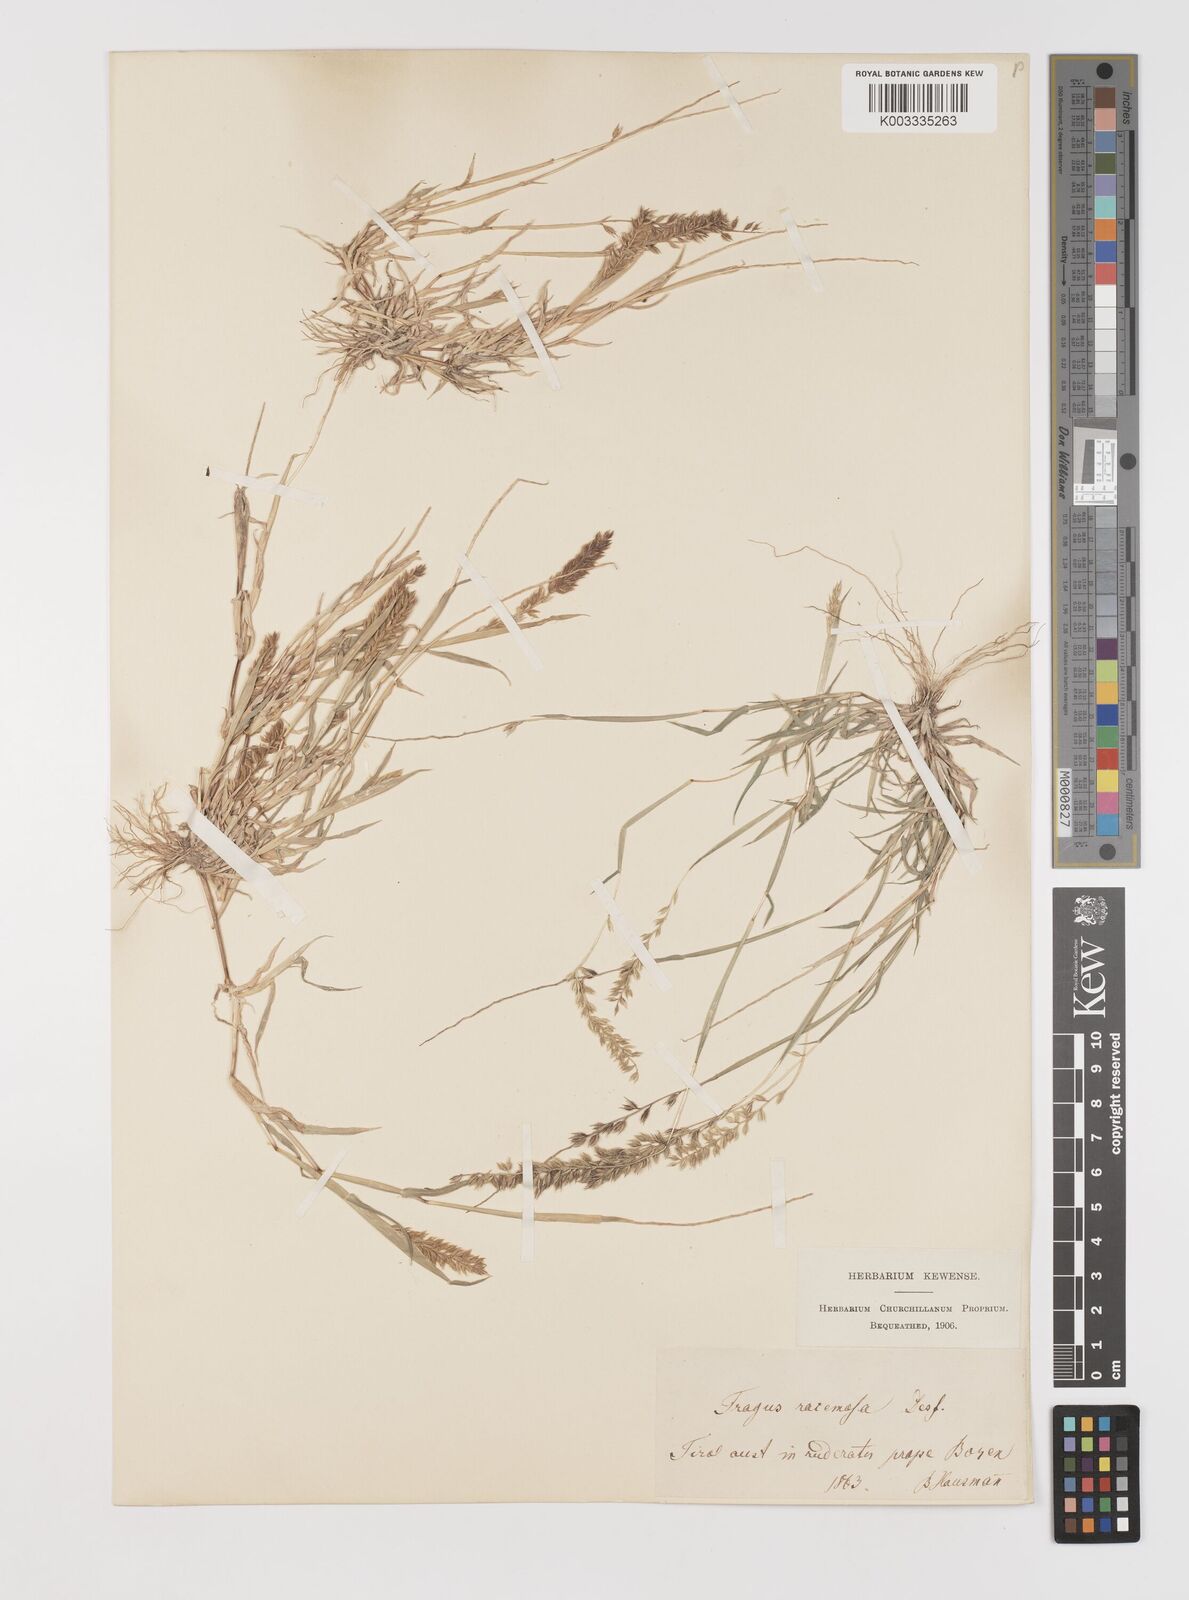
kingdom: Plantae
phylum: Tracheophyta
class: Liliopsida
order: Poales
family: Poaceae
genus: Tragus
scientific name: Tragus racemosus
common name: European bur-grass
